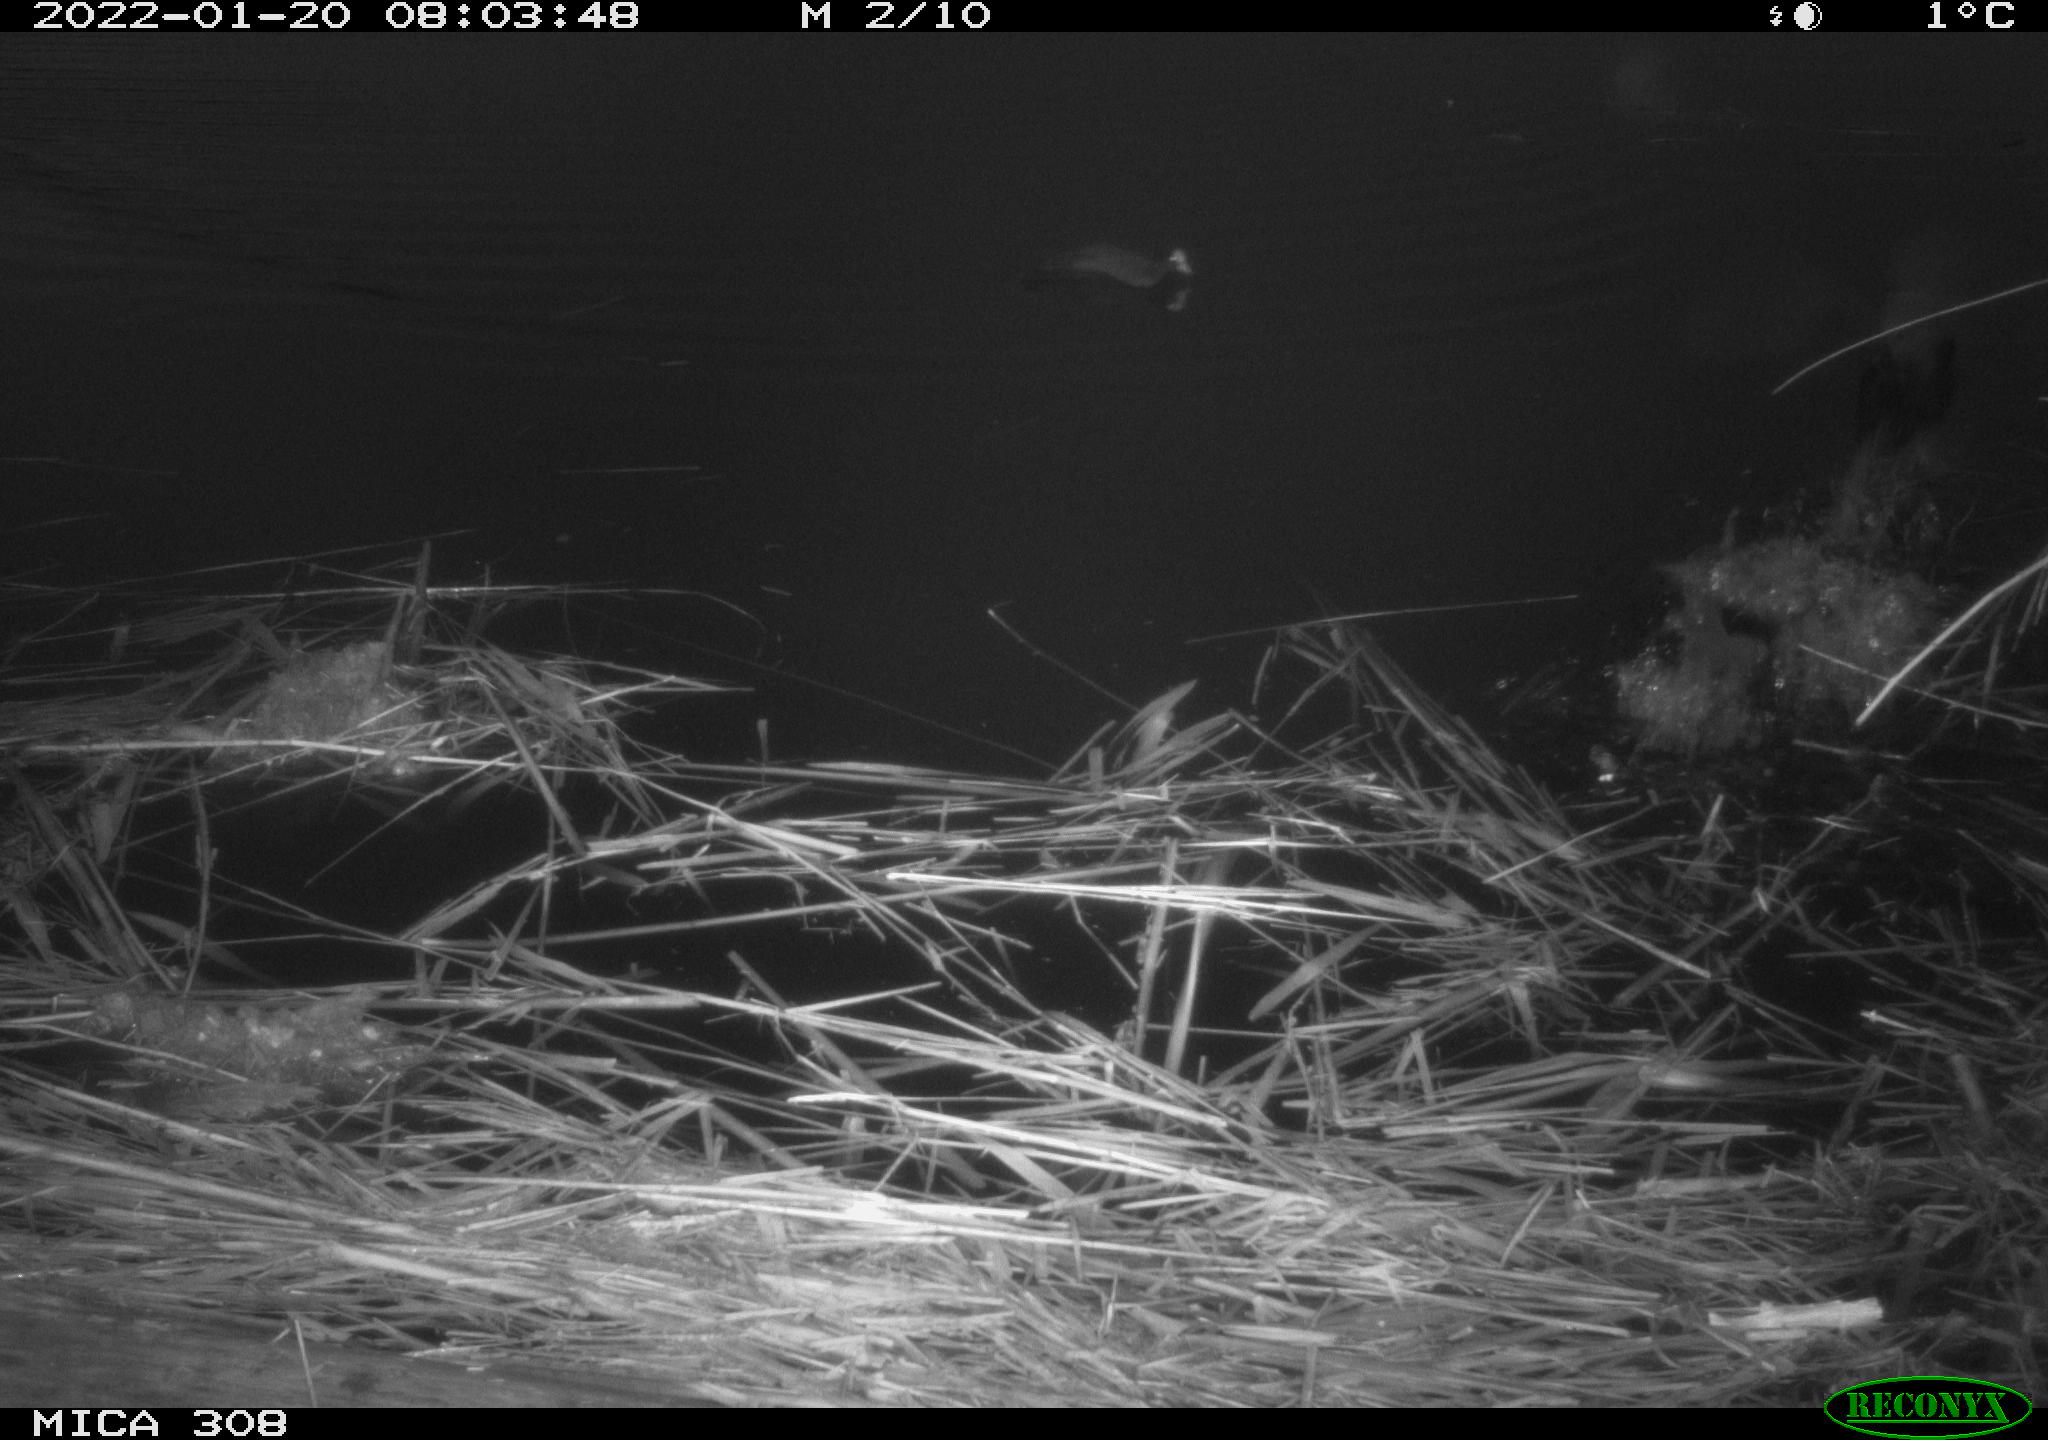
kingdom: Animalia
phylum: Chordata
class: Aves
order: Gruiformes
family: Rallidae
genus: Fulica
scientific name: Fulica atra
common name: Eurasian coot
